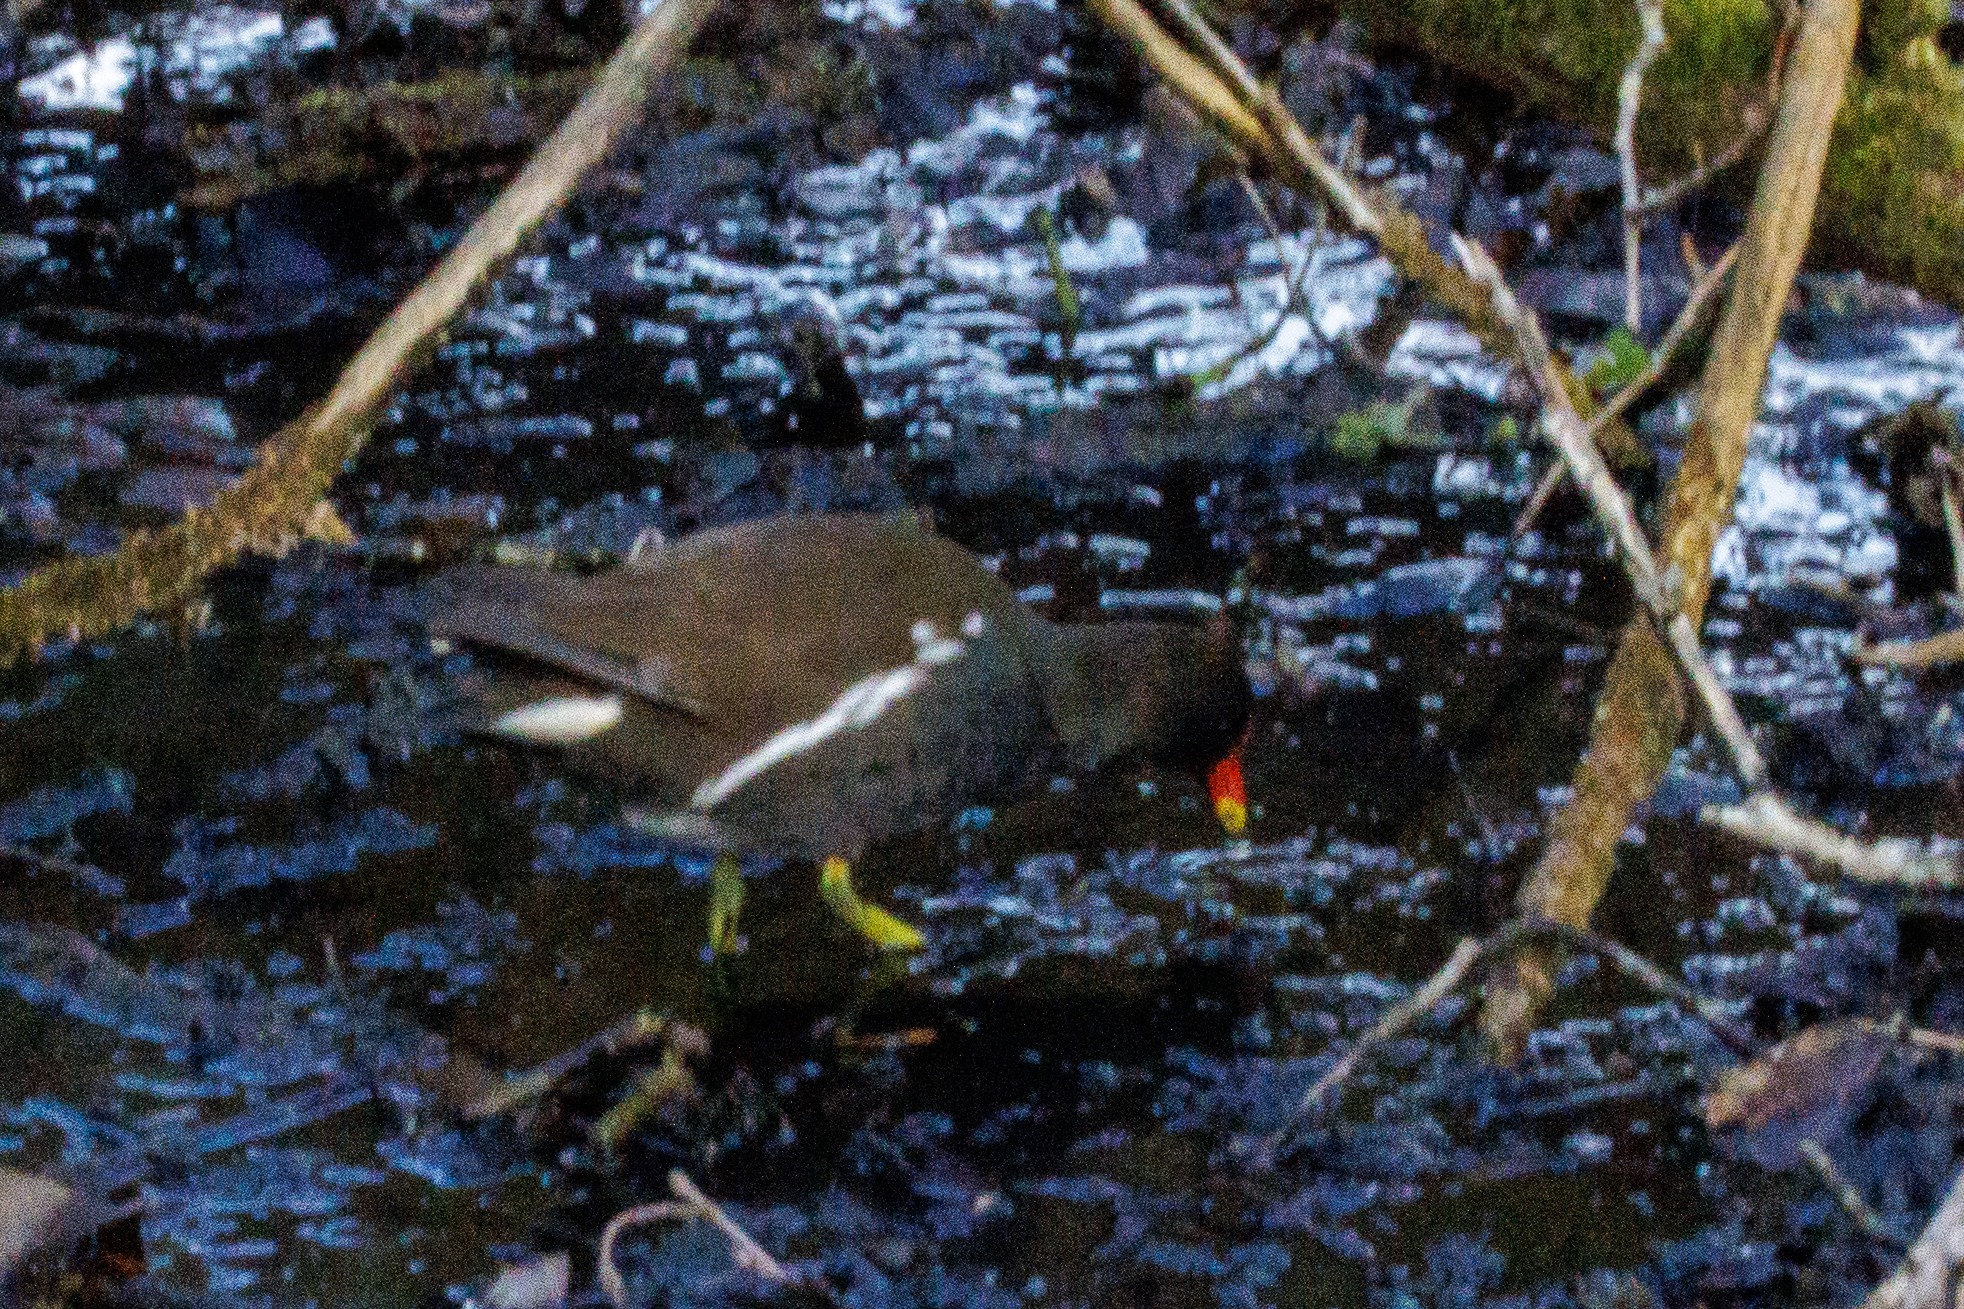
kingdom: Animalia
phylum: Chordata
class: Aves
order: Gruiformes
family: Rallidae
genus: Gallinula
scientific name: Gallinula chloropus
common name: Grønbenet rørhøne
